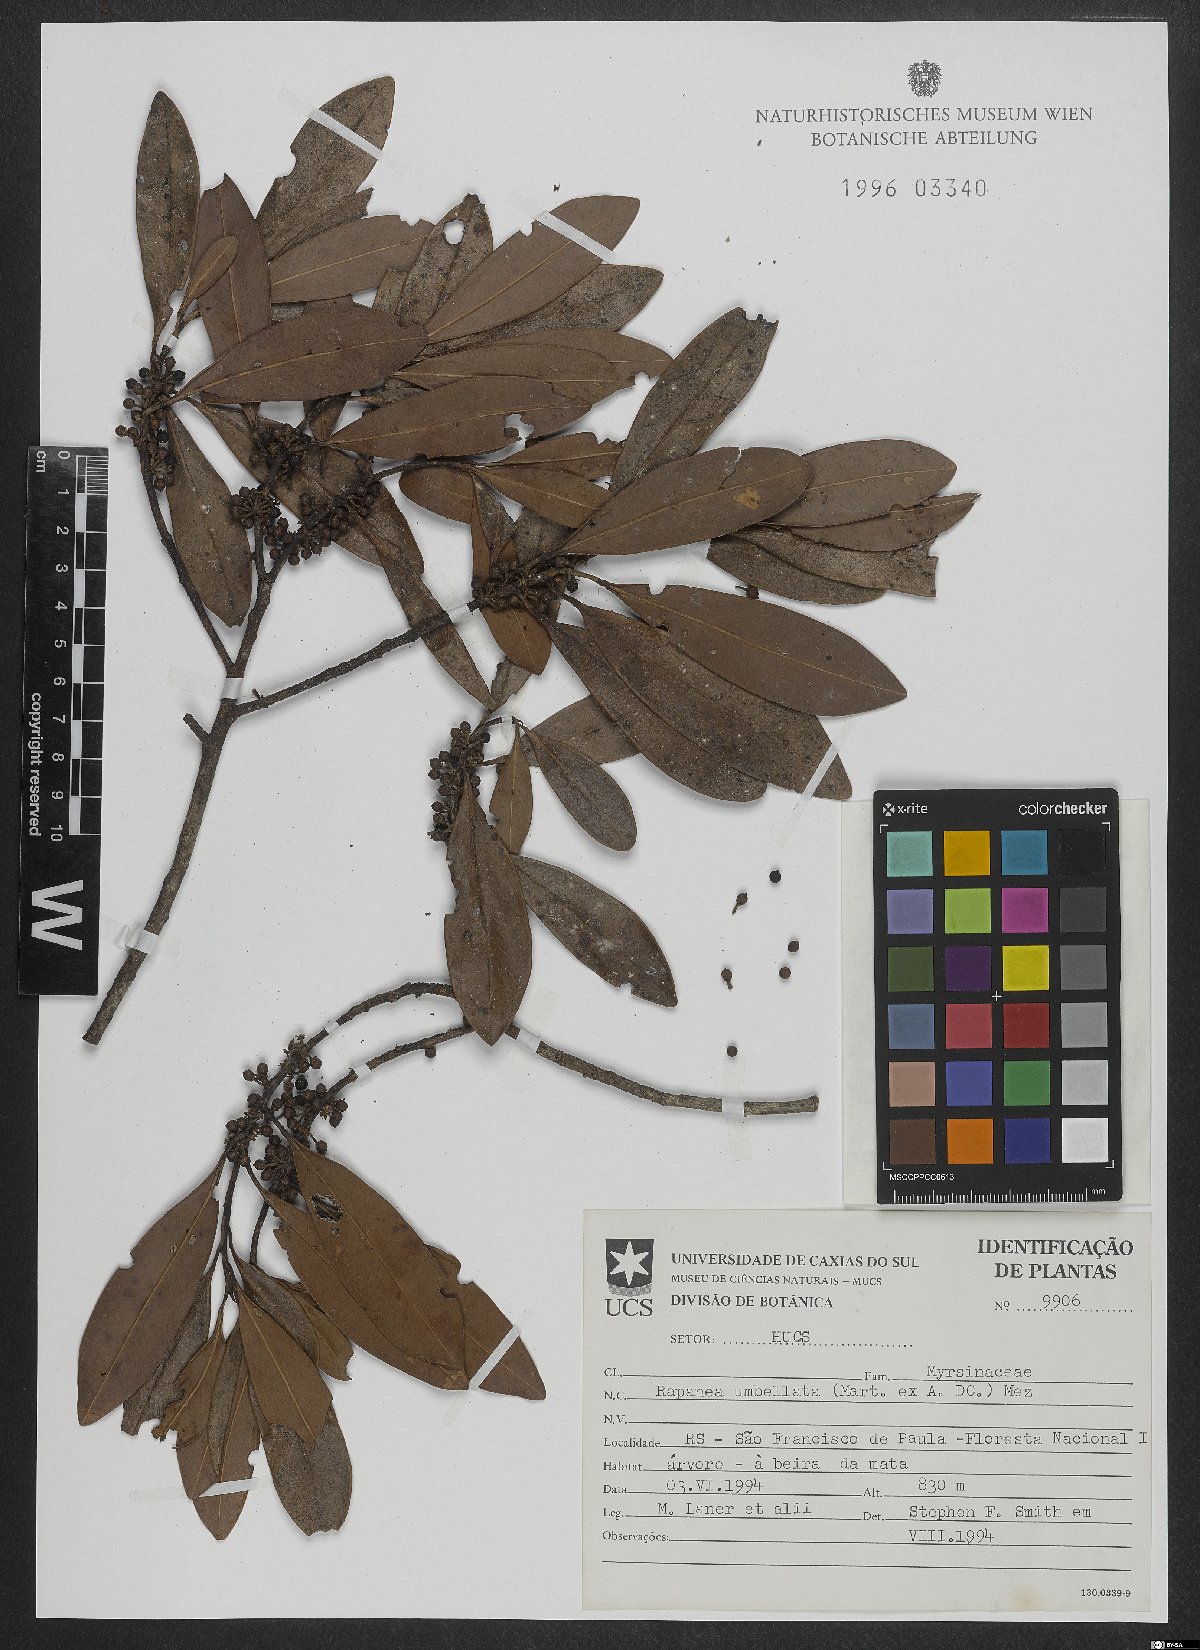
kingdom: Plantae
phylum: Tracheophyta
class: Magnoliopsida
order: Ericales
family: Primulaceae
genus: Myrsine
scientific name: Myrsine umbellata
